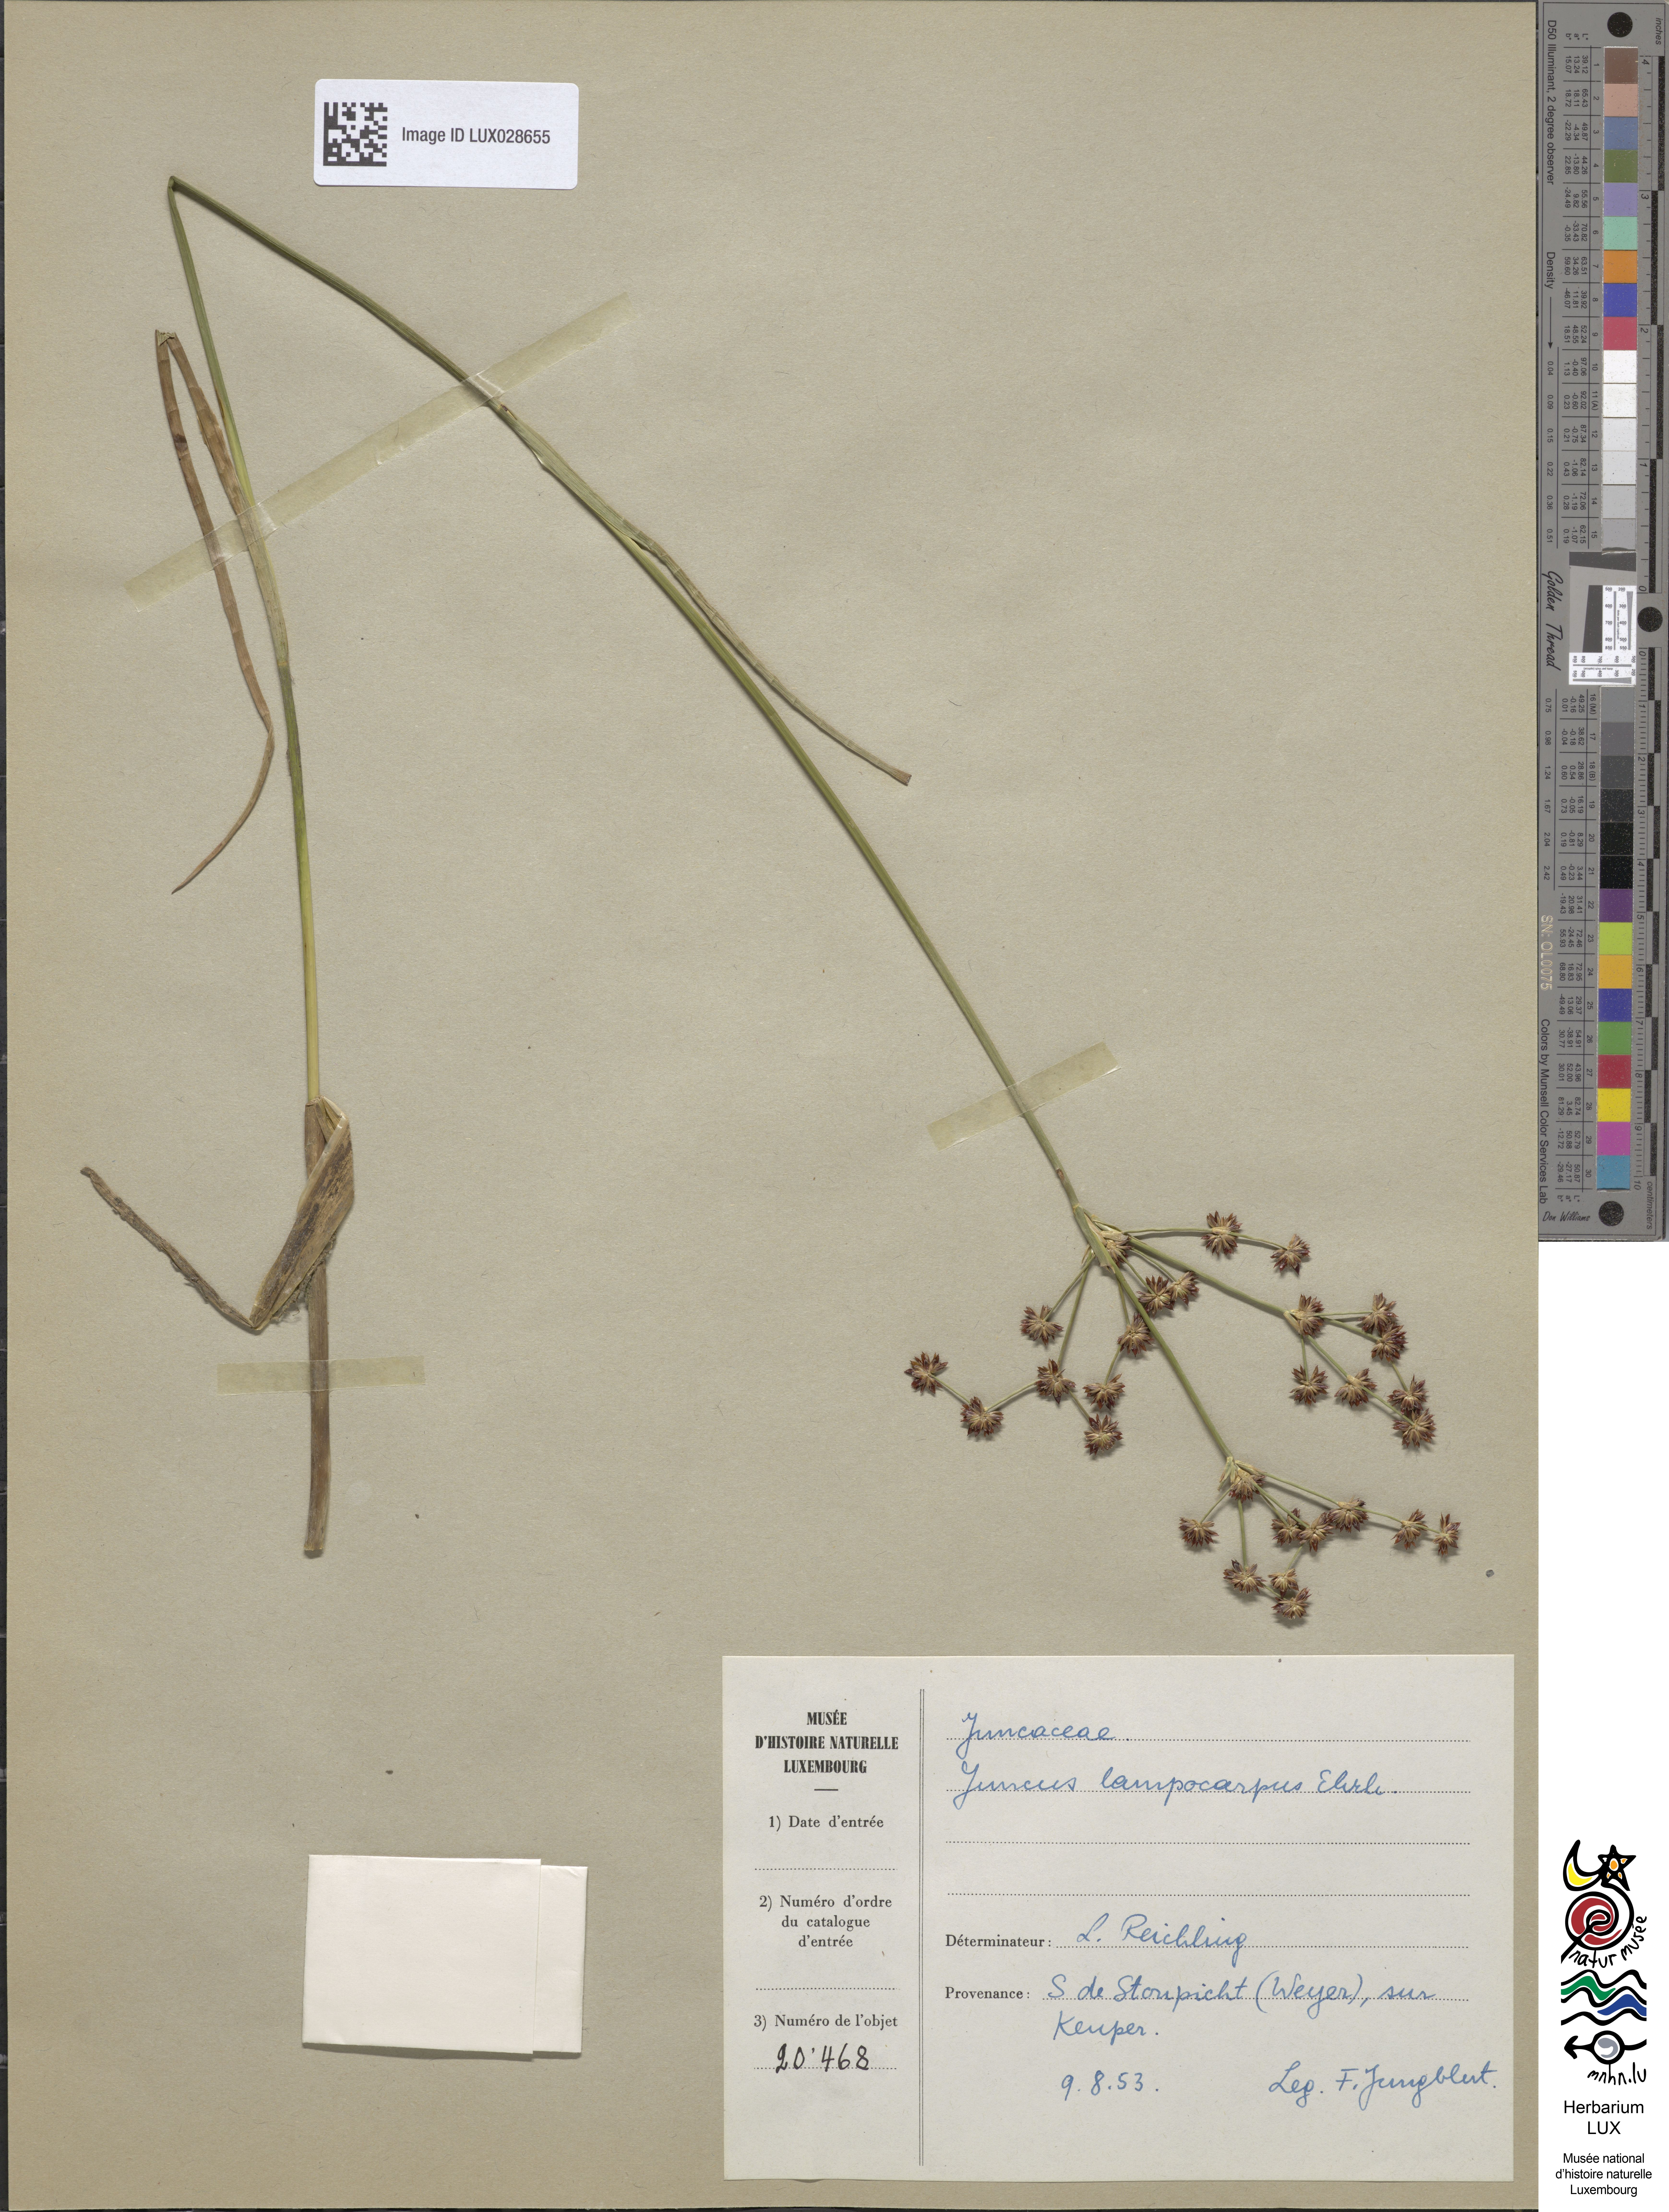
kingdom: Plantae
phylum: Tracheophyta
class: Liliopsida
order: Poales
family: Juncaceae
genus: Juncus
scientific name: Juncus articulatus
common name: Jointed rush
